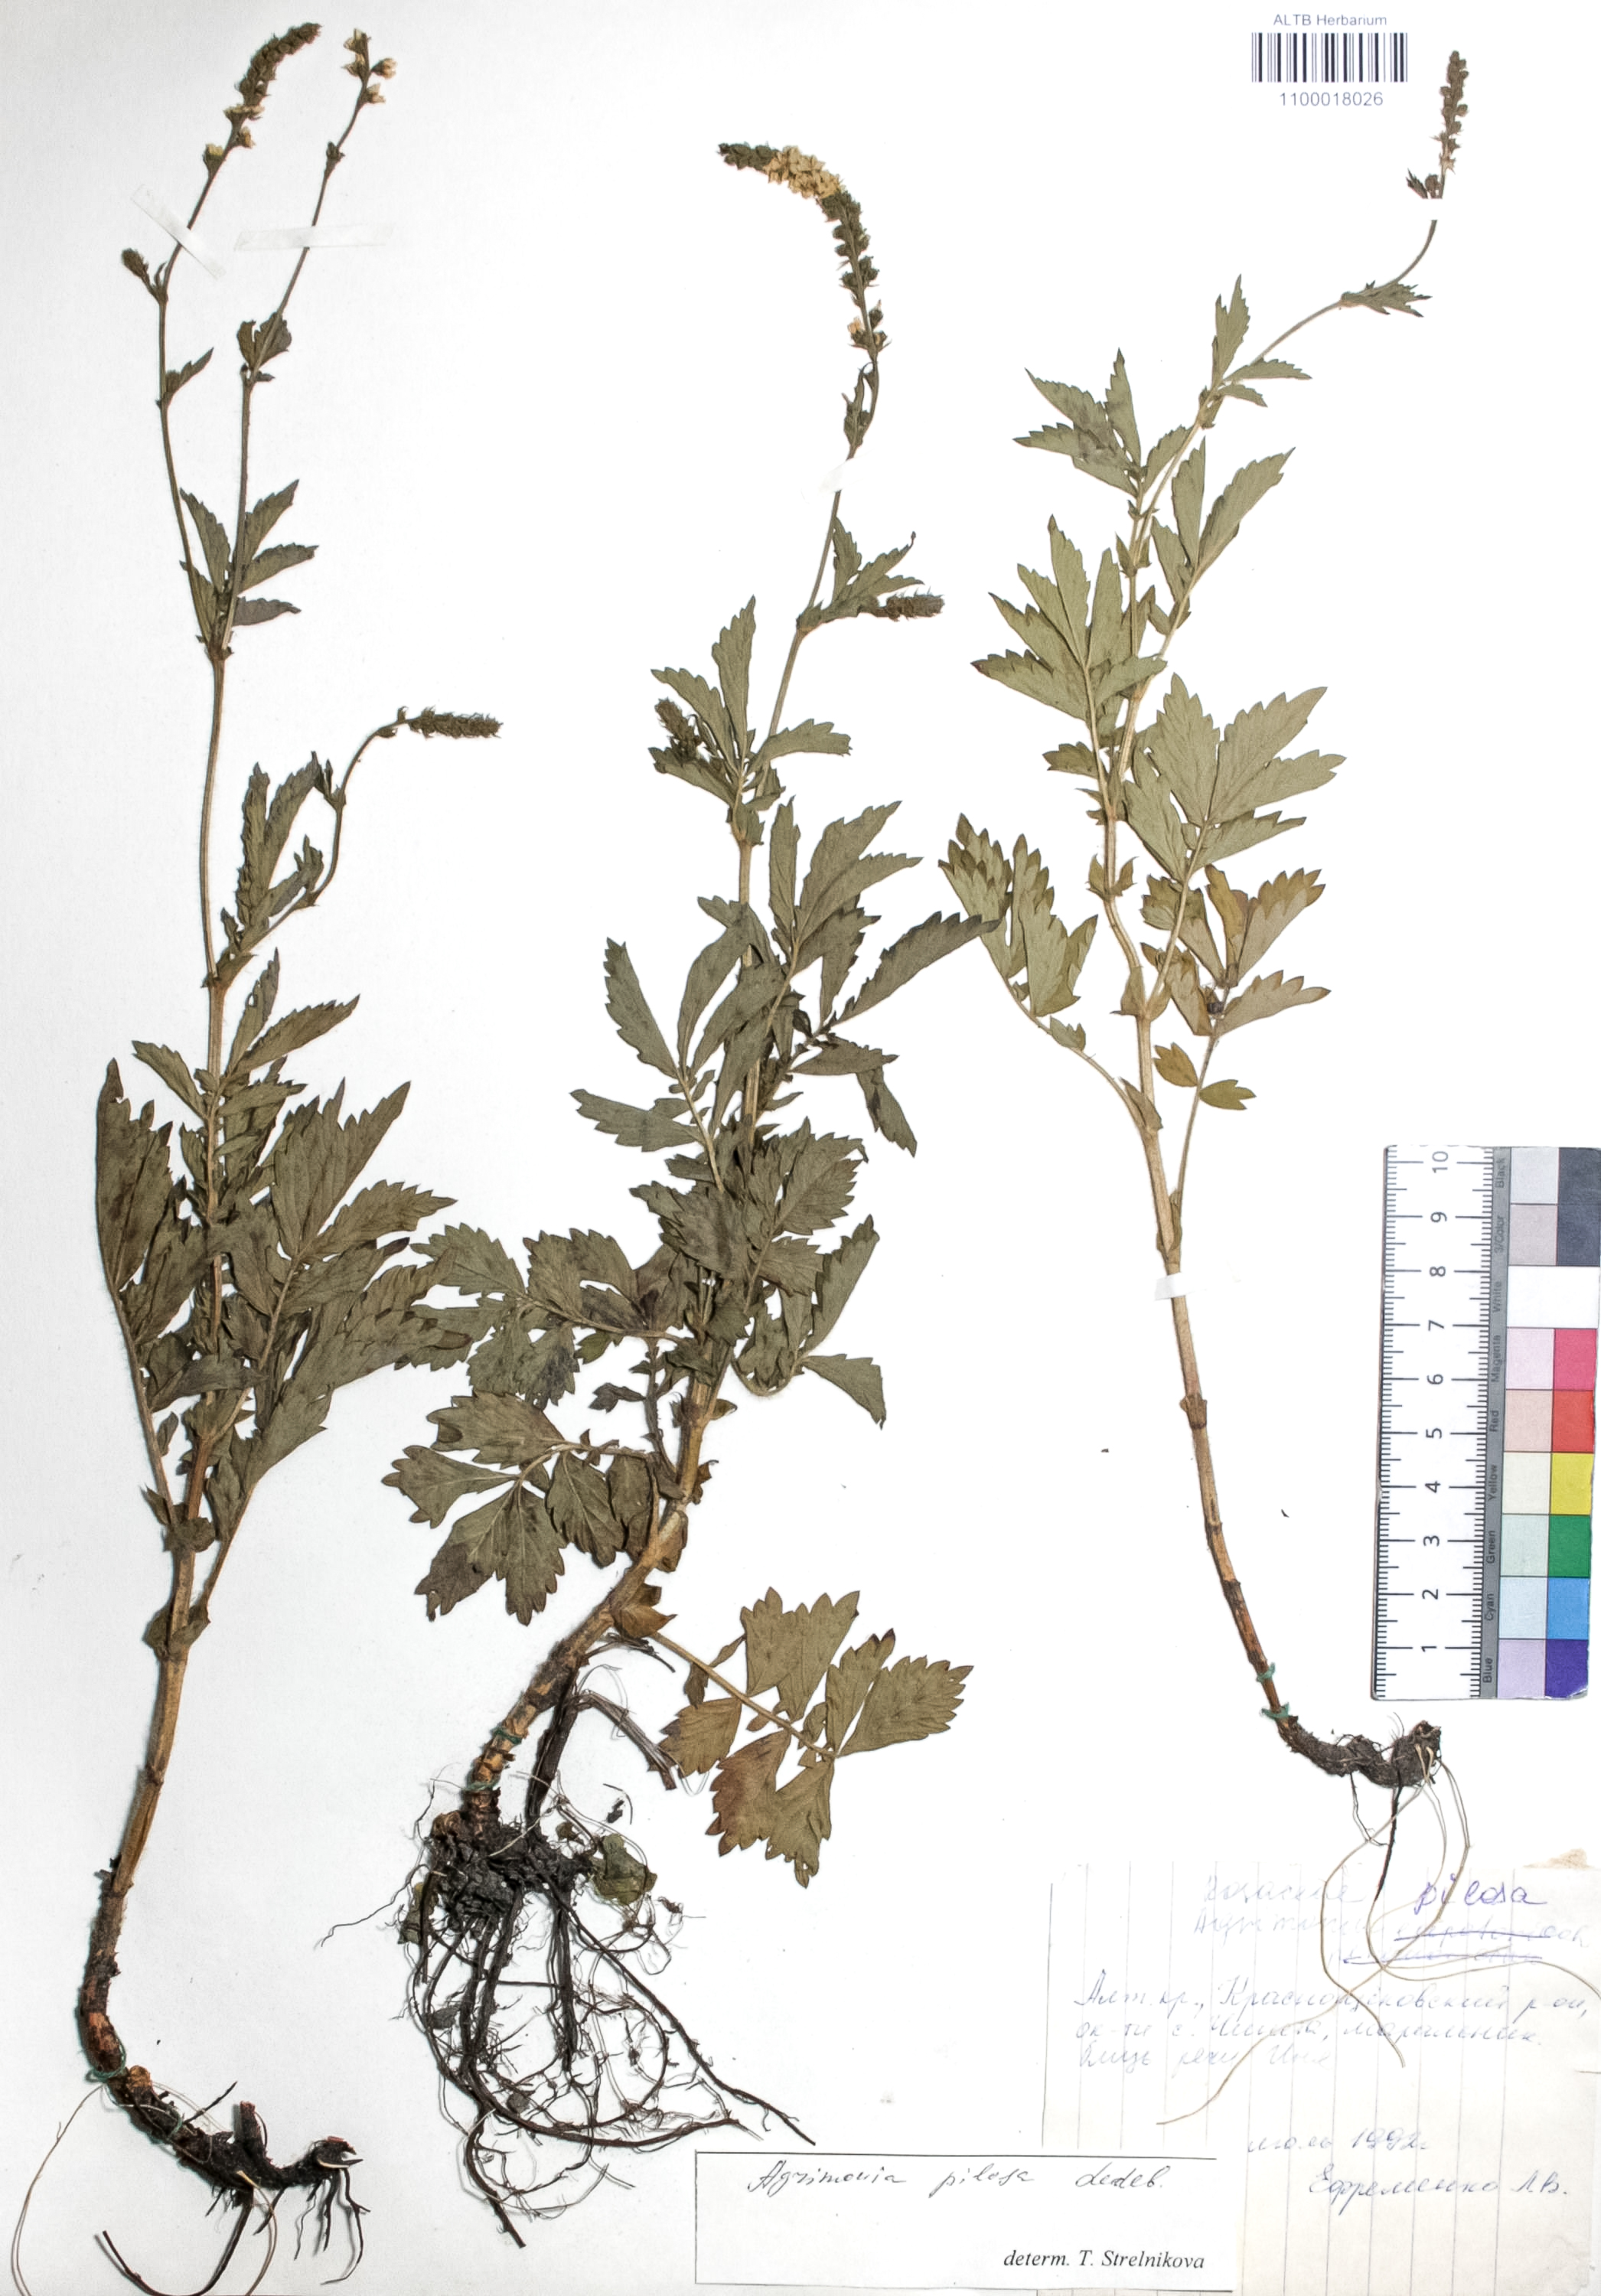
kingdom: Plantae
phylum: Tracheophyta
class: Magnoliopsida
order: Rosales
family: Rosaceae
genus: Agrimonia
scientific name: Agrimonia pilosa
